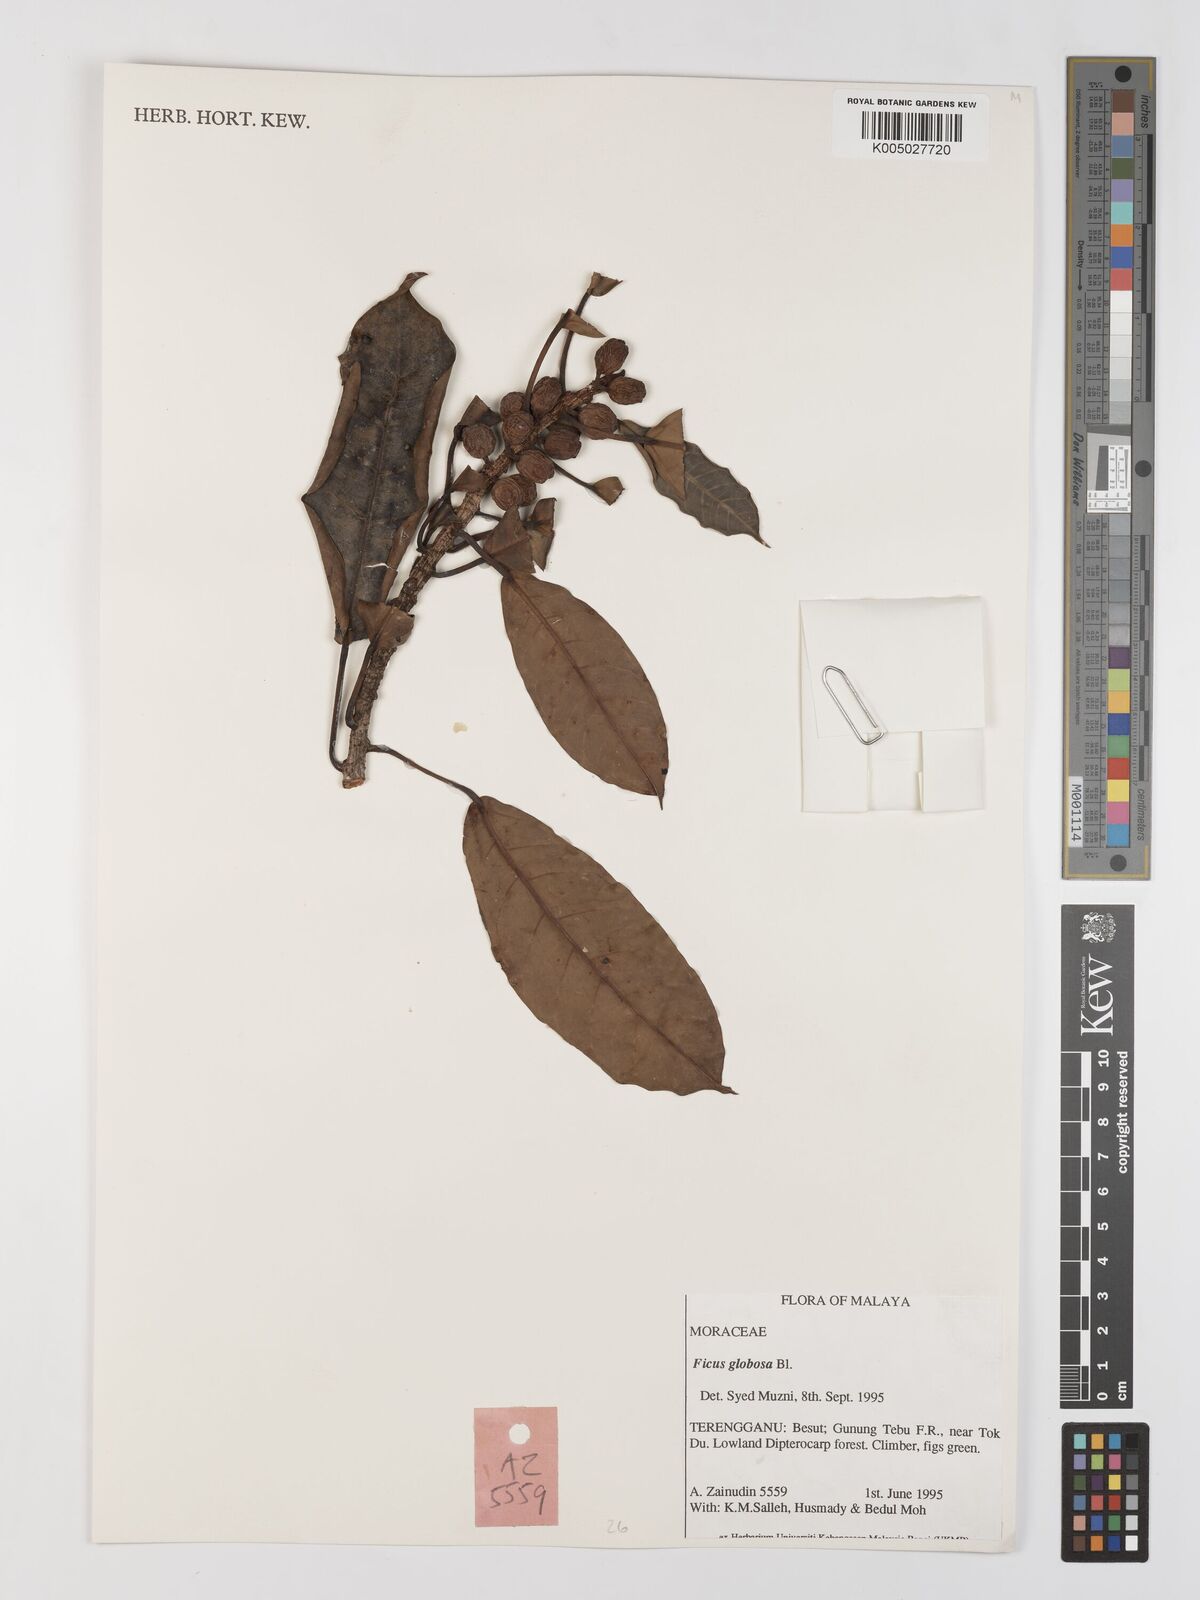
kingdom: Plantae
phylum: Tracheophyta
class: Magnoliopsida
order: Rosales
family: Moraceae
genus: Ficus
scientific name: Ficus
